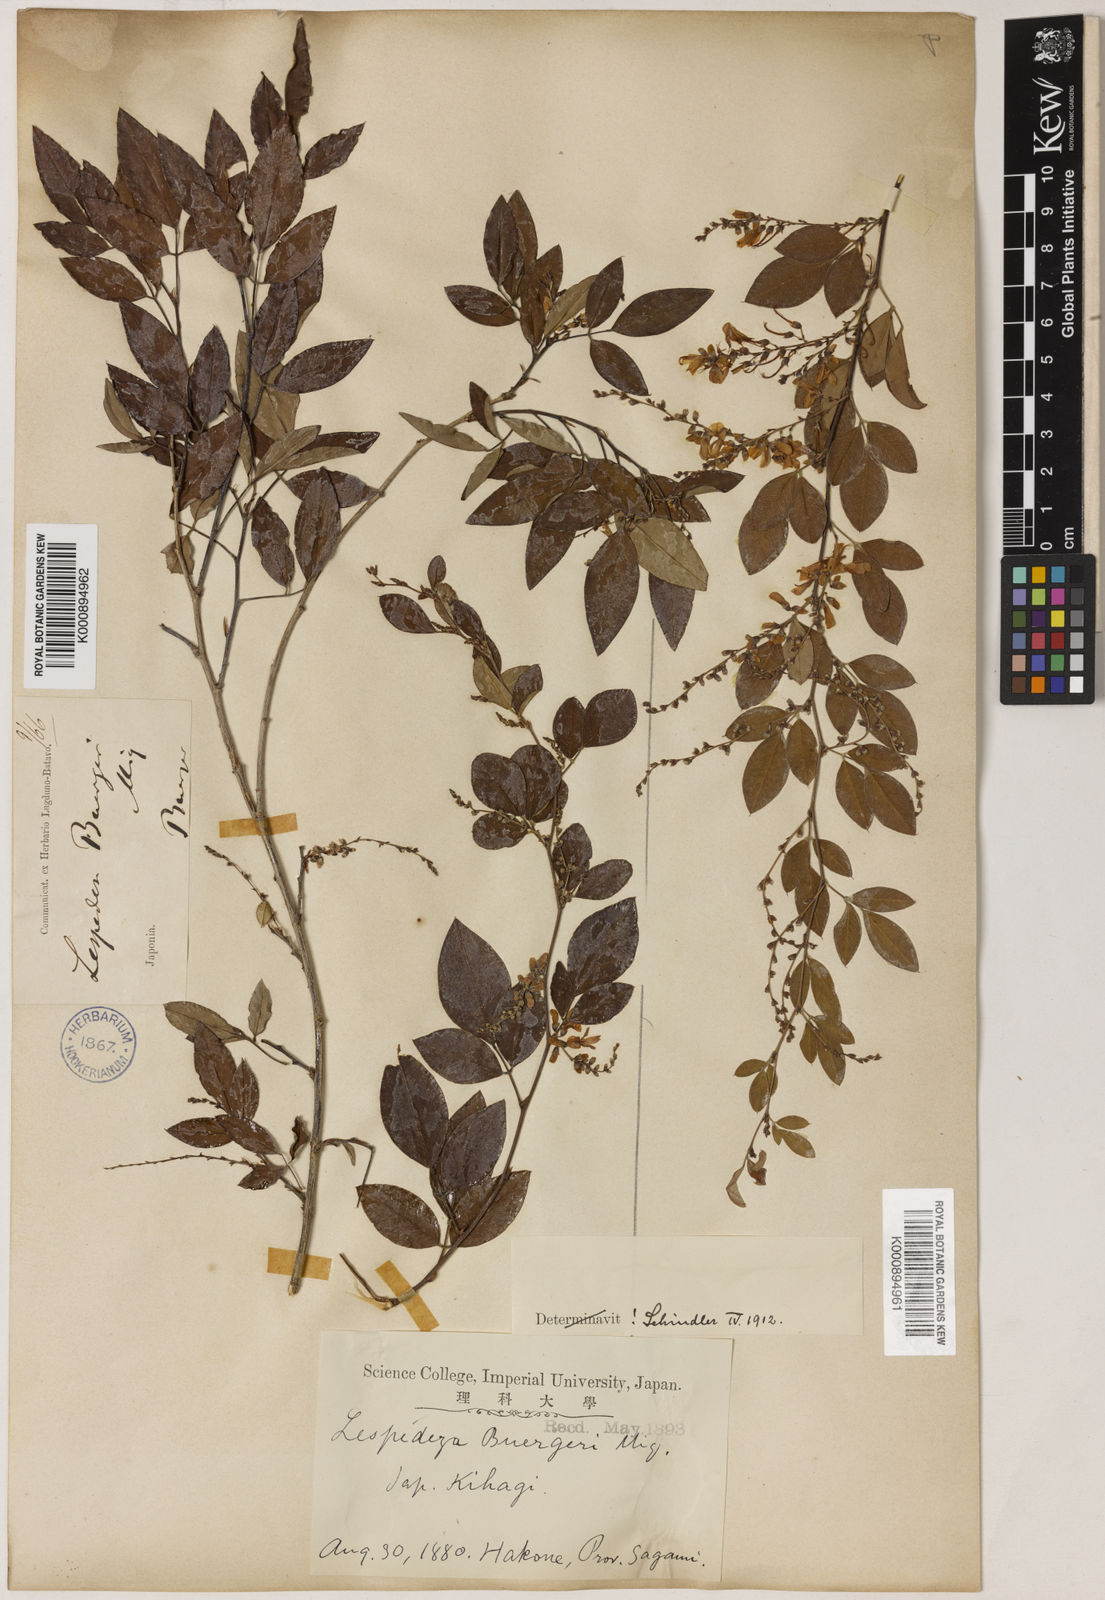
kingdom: Plantae
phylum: Tracheophyta
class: Magnoliopsida
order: Fabales
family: Fabaceae
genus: Lespedeza
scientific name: Lespedeza buergeri
